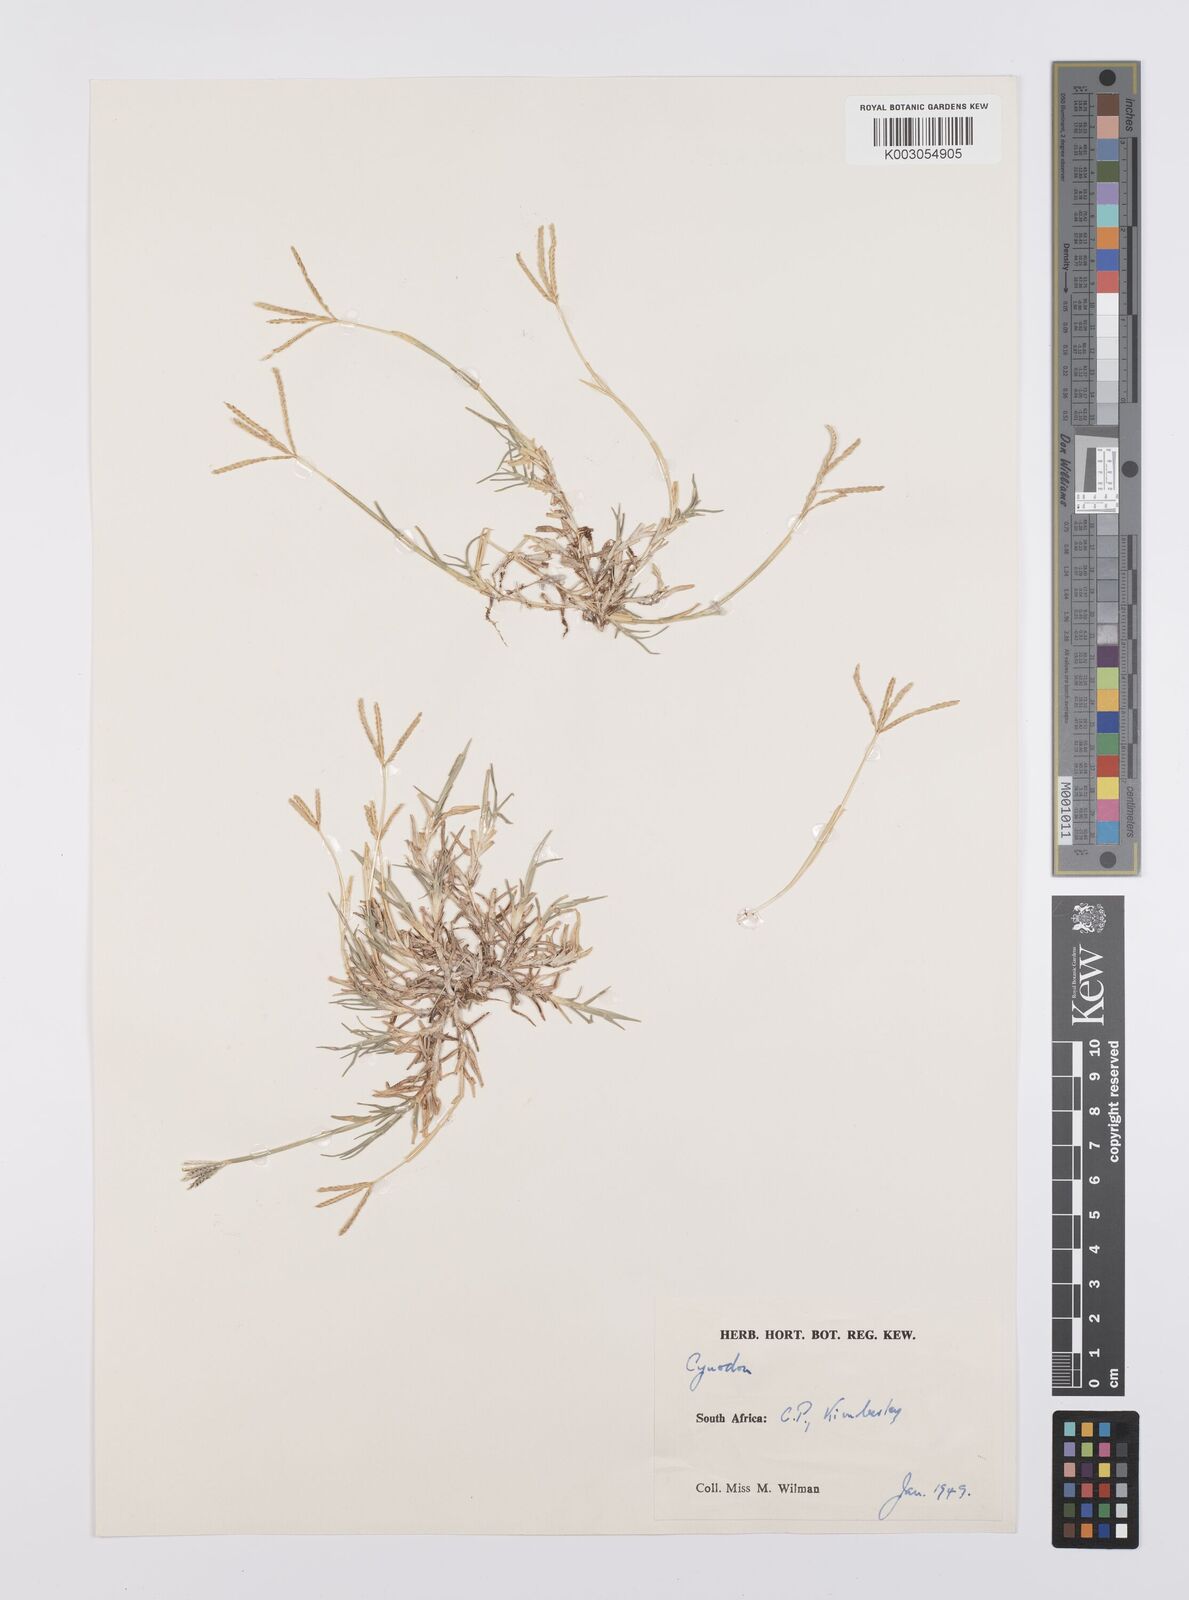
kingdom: Plantae
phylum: Tracheophyta
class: Liliopsida
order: Poales
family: Poaceae
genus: Cynodon
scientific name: Cynodon dactylon
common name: Bermuda grass
